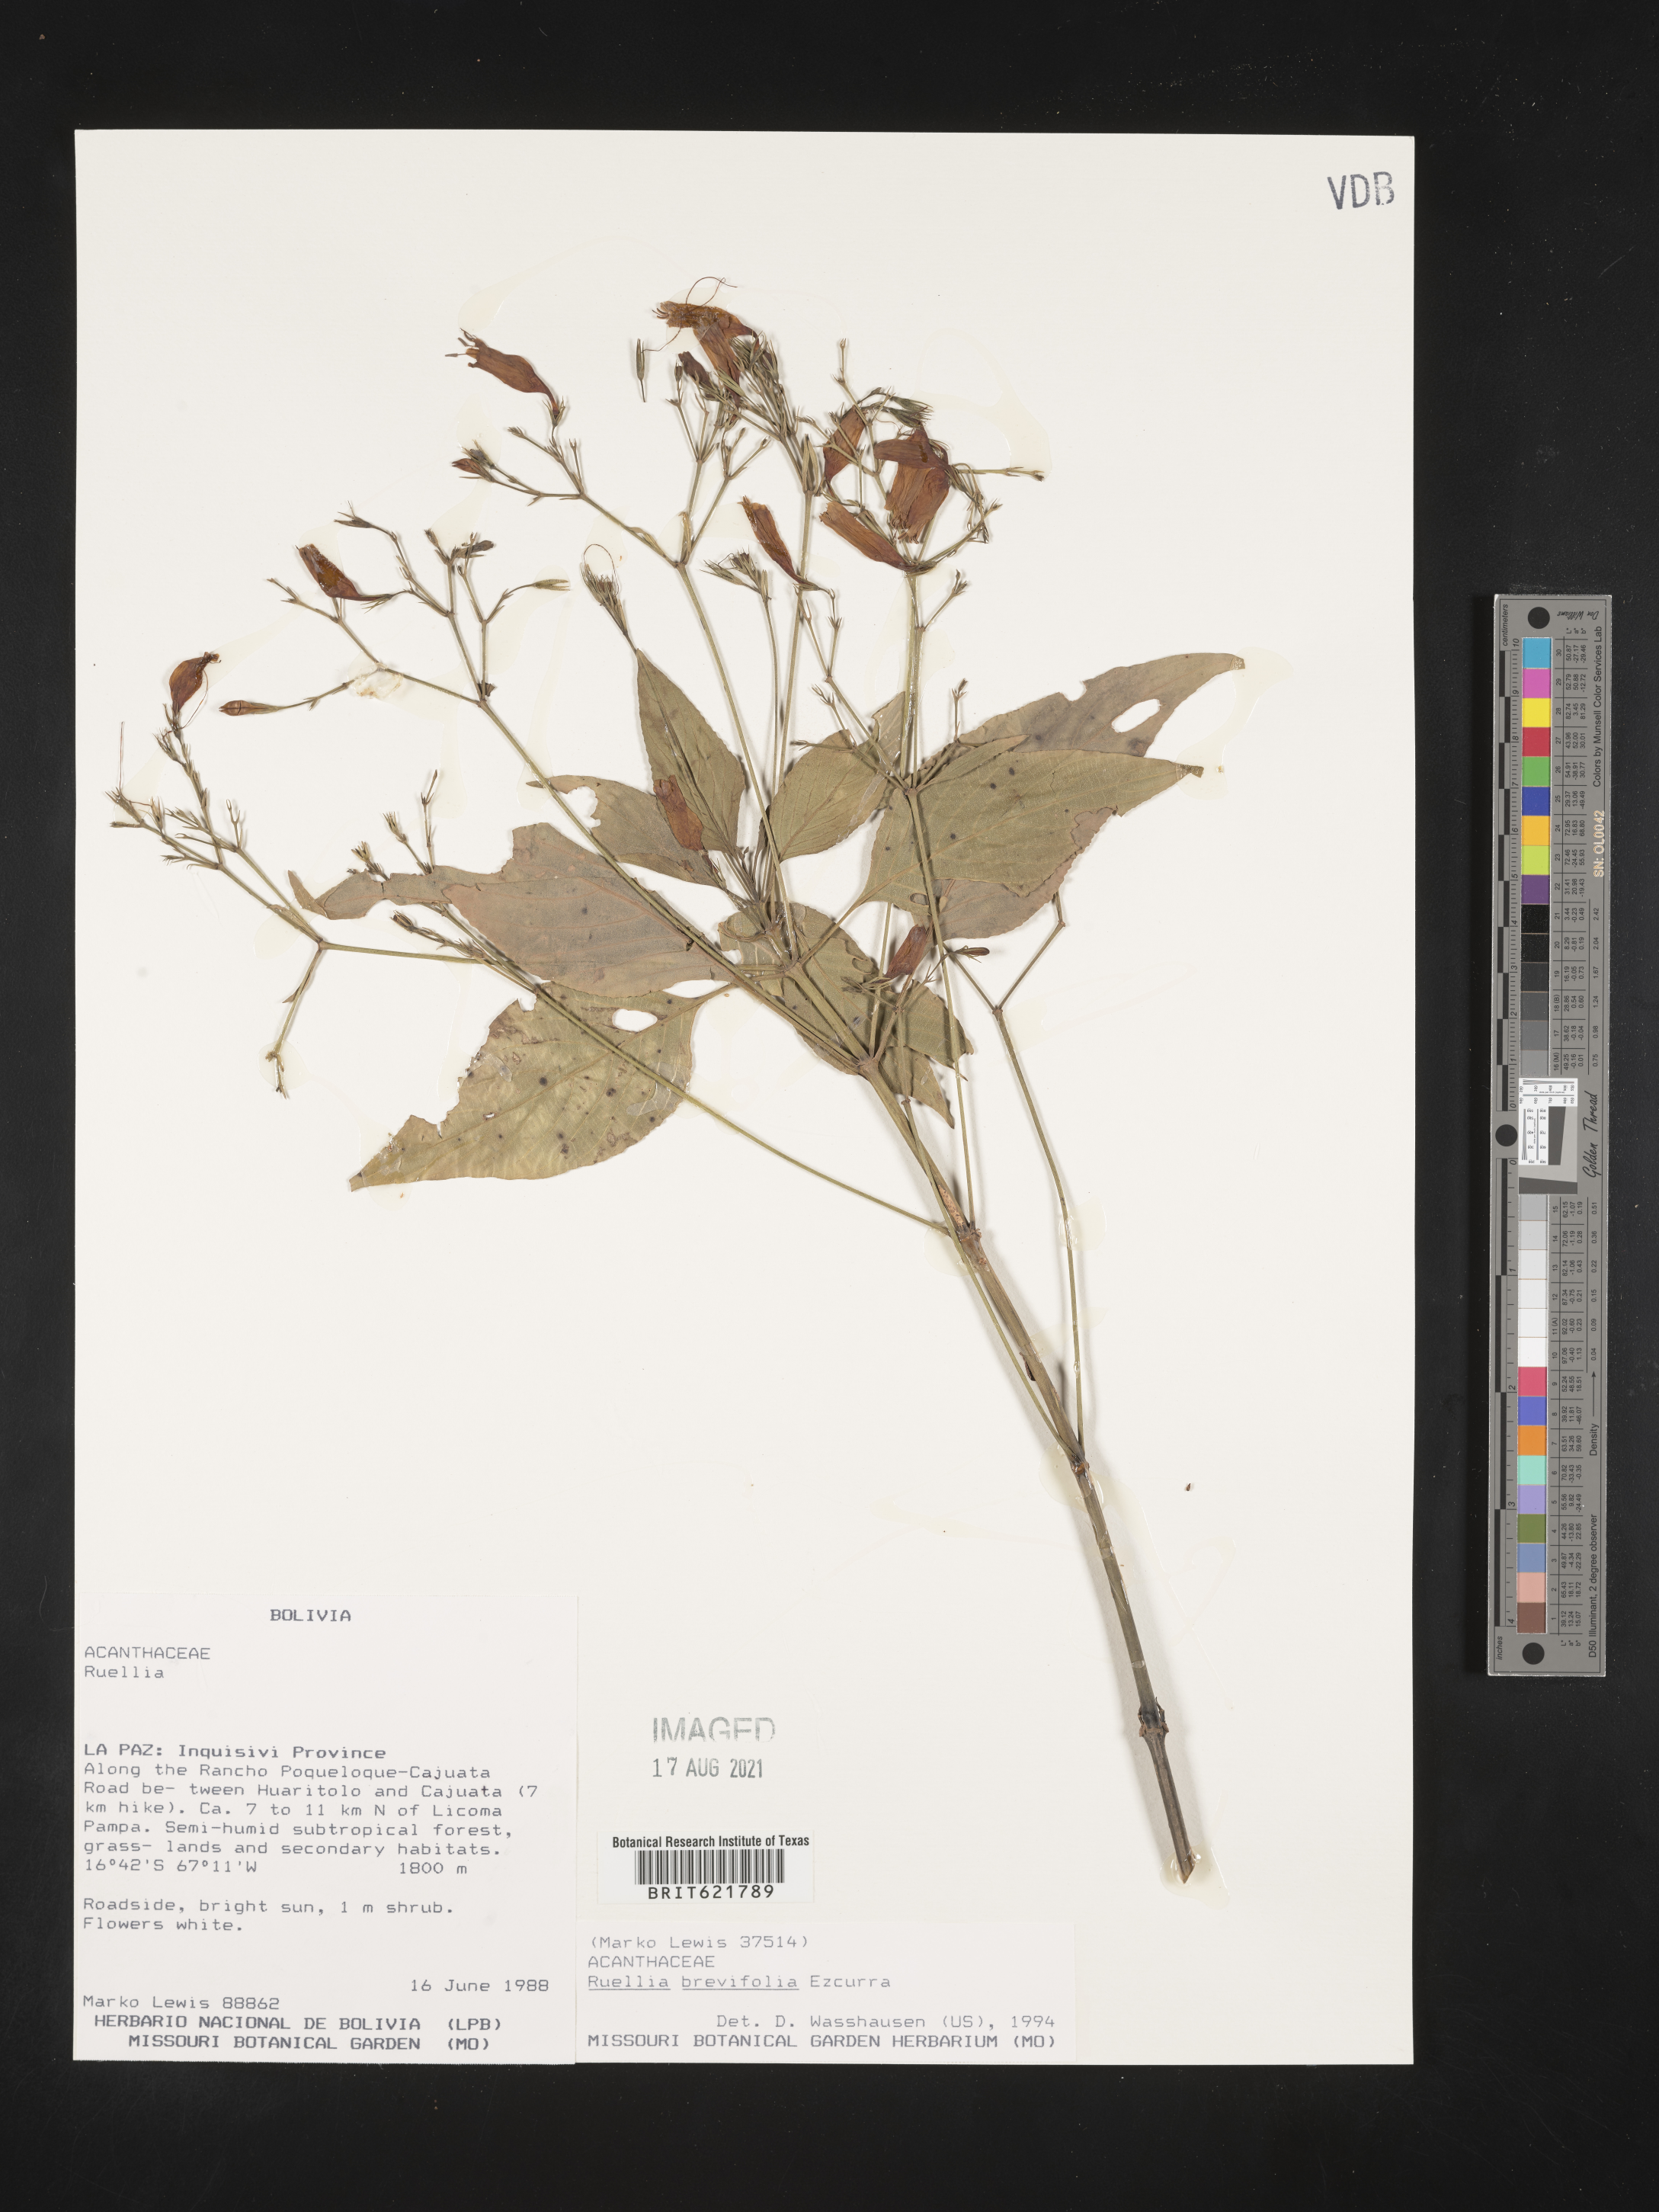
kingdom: Plantae
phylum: Tracheophyta
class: Magnoliopsida
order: Lamiales
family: Acanthaceae
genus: Ruellia
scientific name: Ruellia brevifolia
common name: Tropical wild petunia
